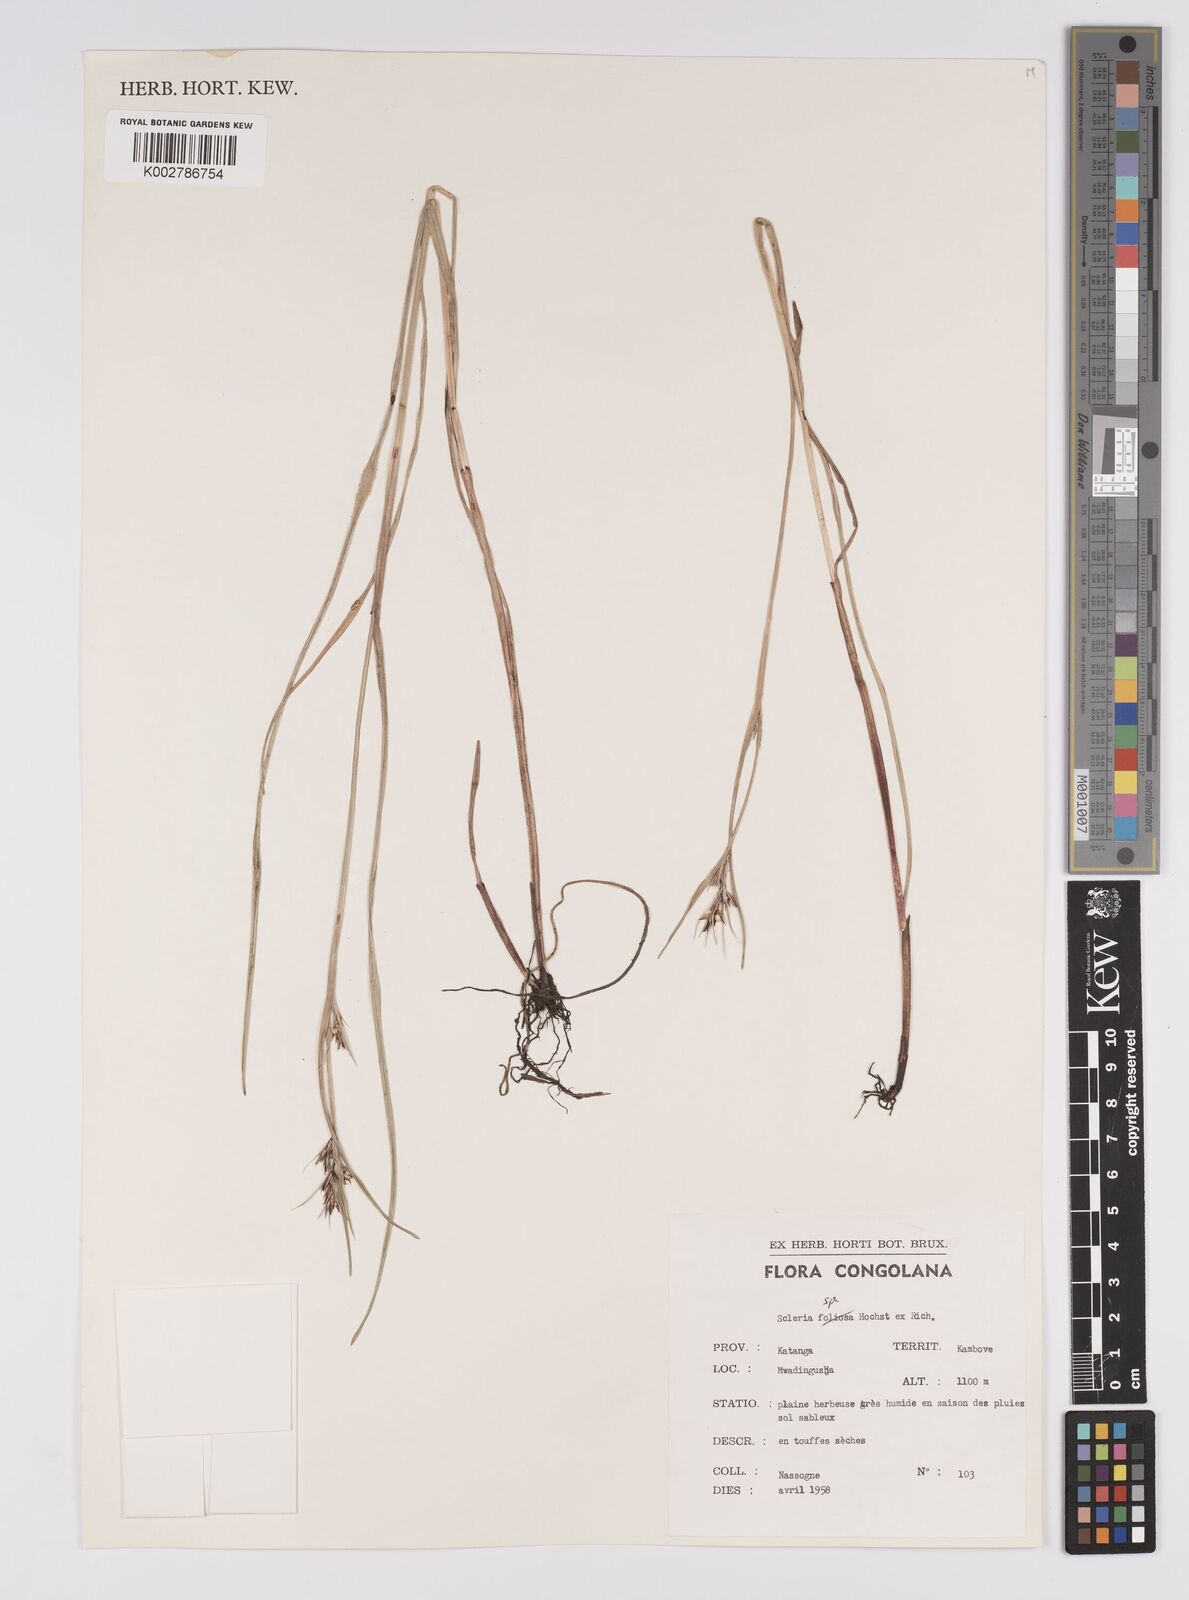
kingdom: Plantae
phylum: Tracheophyta
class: Liliopsida
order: Poales
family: Cyperaceae
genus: Scleria
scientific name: Scleria
